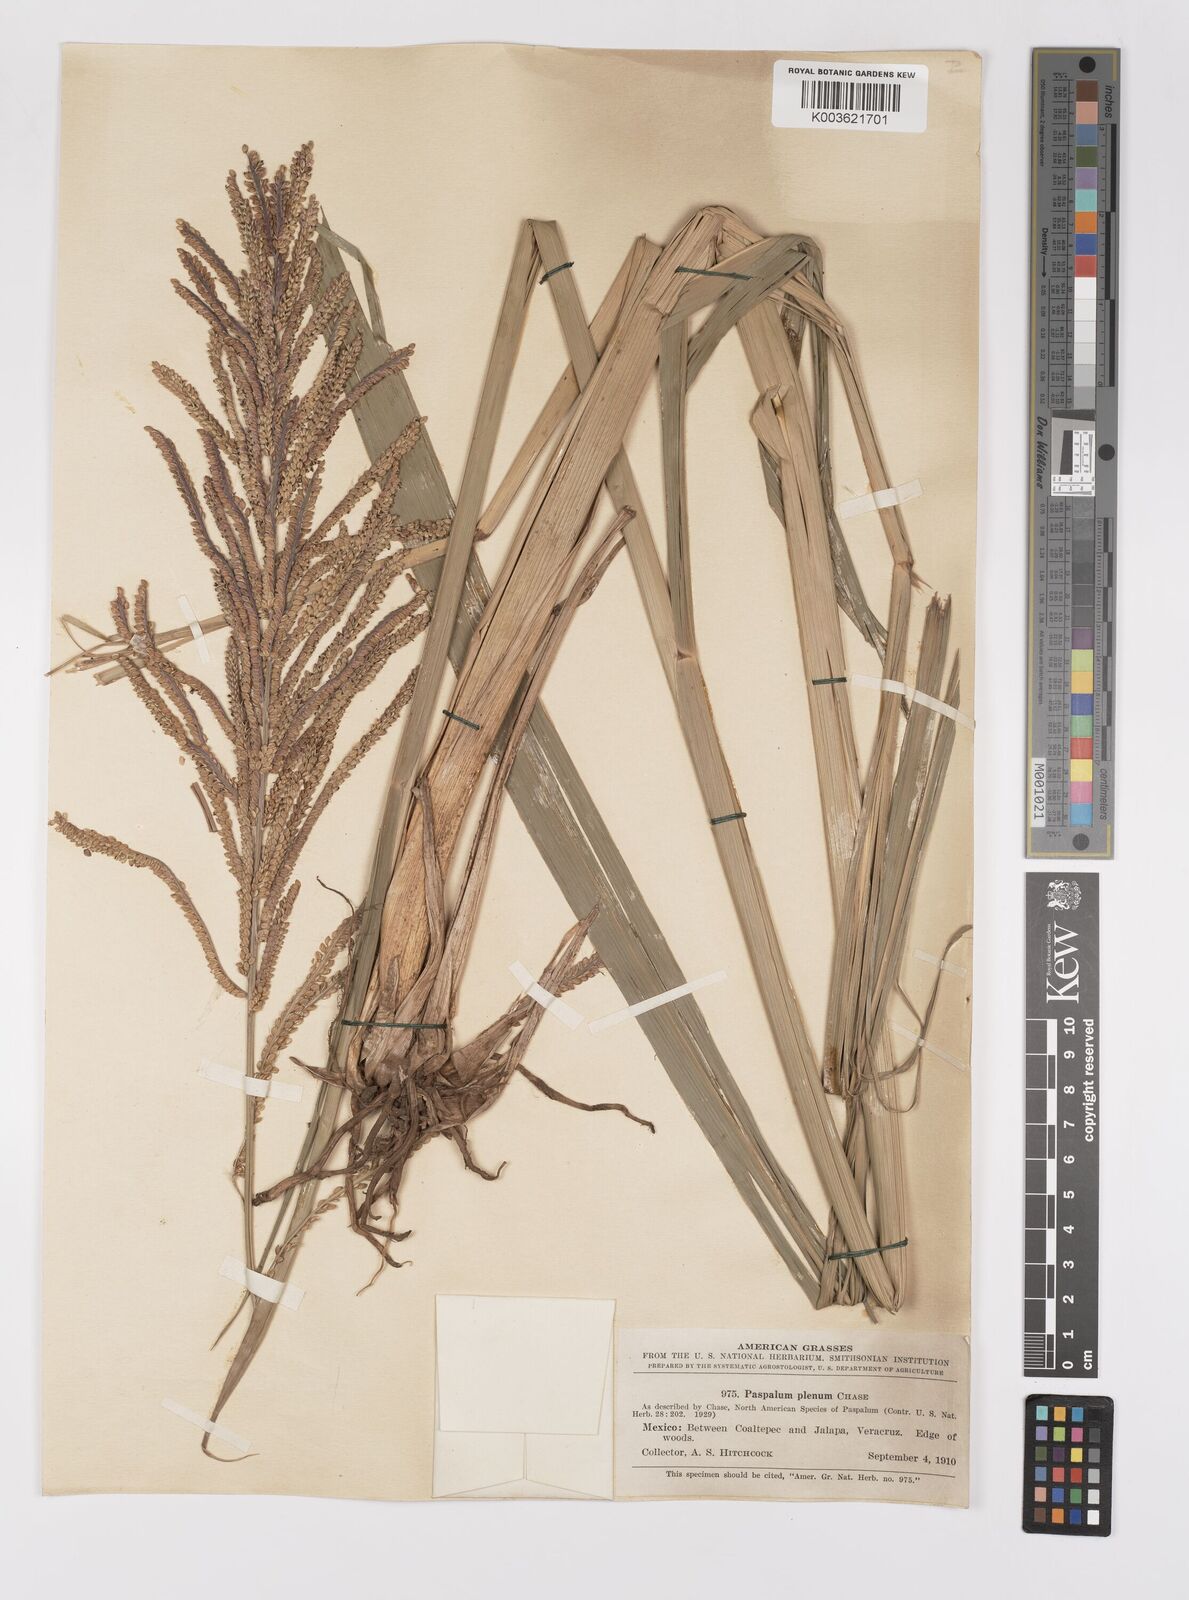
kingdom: Plantae
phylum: Tracheophyta
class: Liliopsida
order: Poales
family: Poaceae
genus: Paspalum
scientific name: Paspalum plenum
